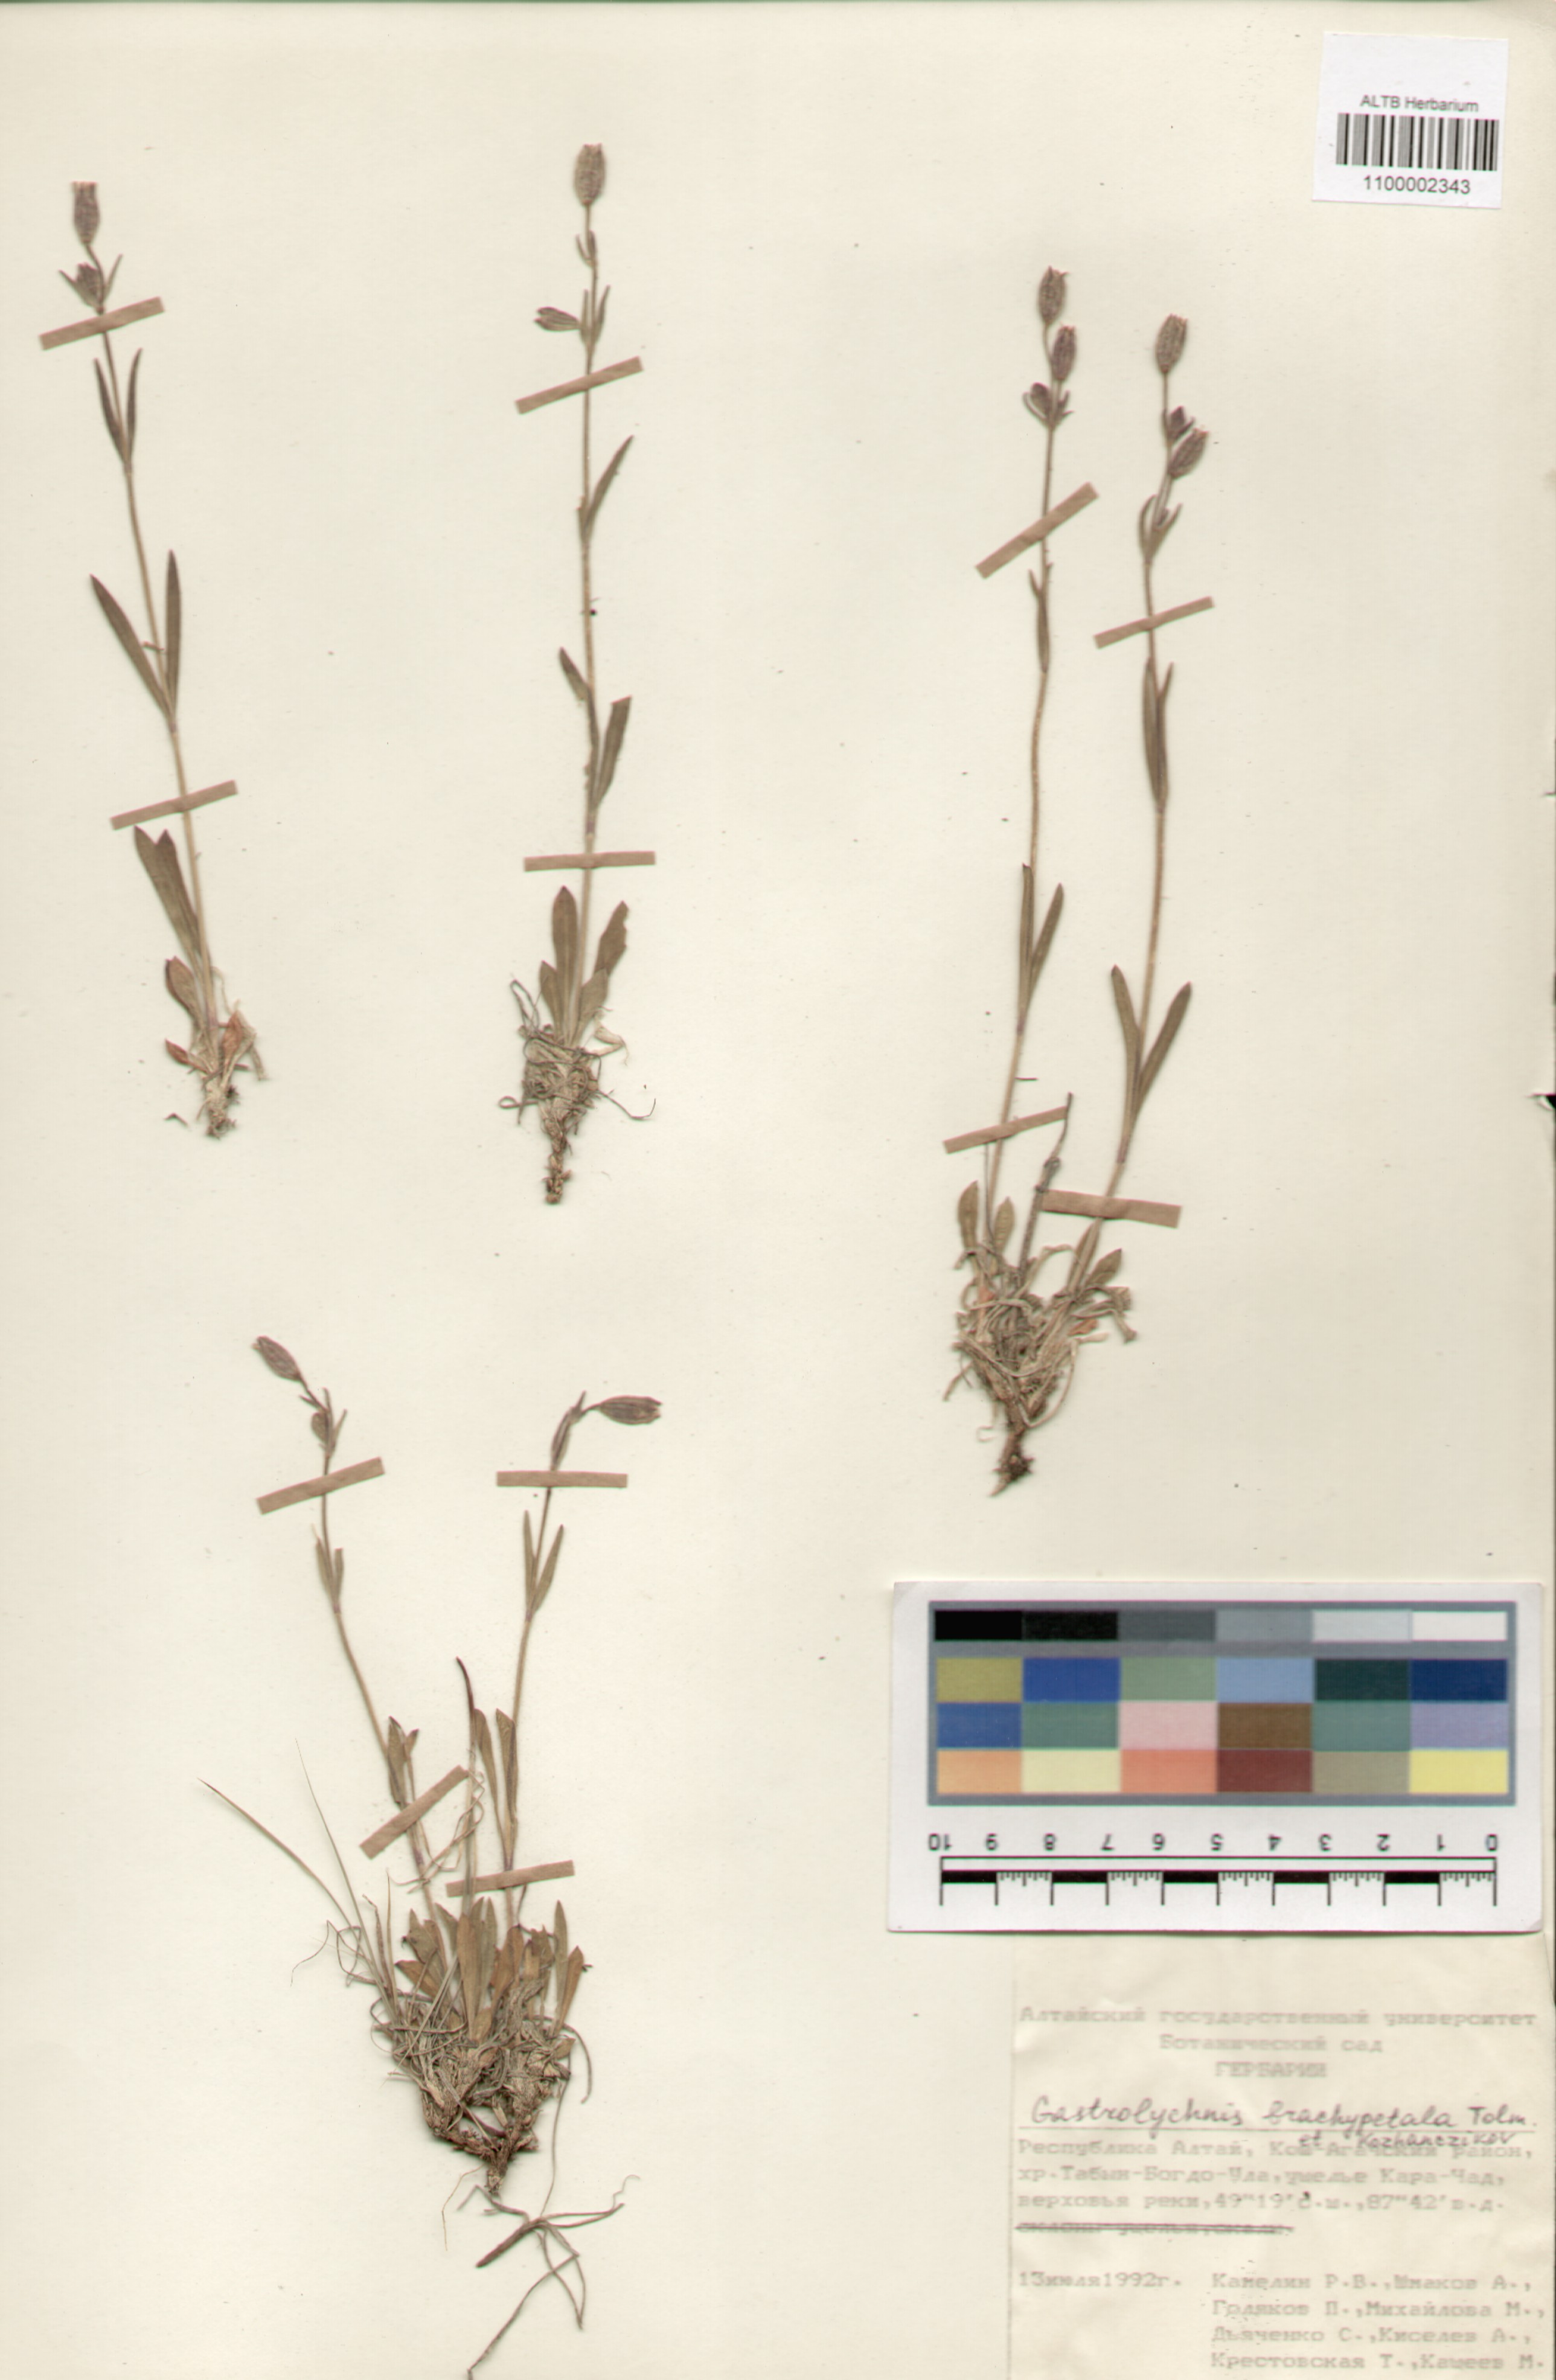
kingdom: Plantae
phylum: Tracheophyta
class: Magnoliopsida
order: Caryophyllales
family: Caryophyllaceae
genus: Silene
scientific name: Silene songarica
